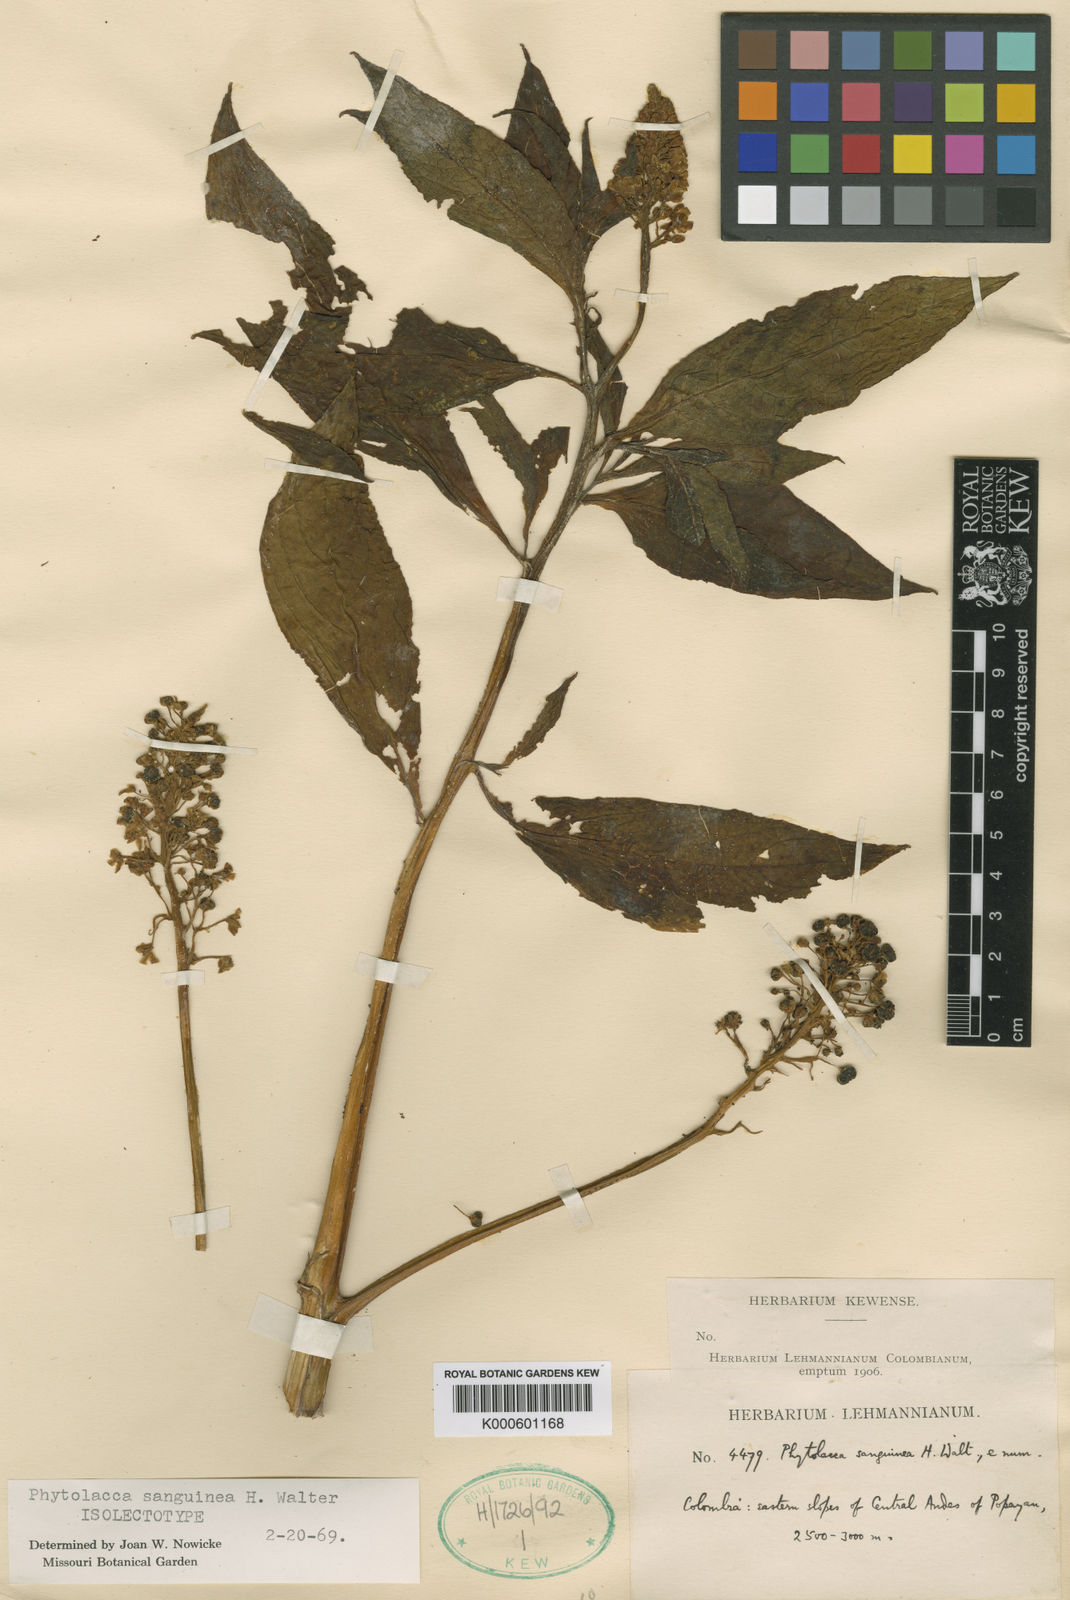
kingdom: Plantae
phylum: Tracheophyta
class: Magnoliopsida
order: Caryophyllales
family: Phytolaccaceae
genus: Phytolacca
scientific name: Phytolacca sanguinea
